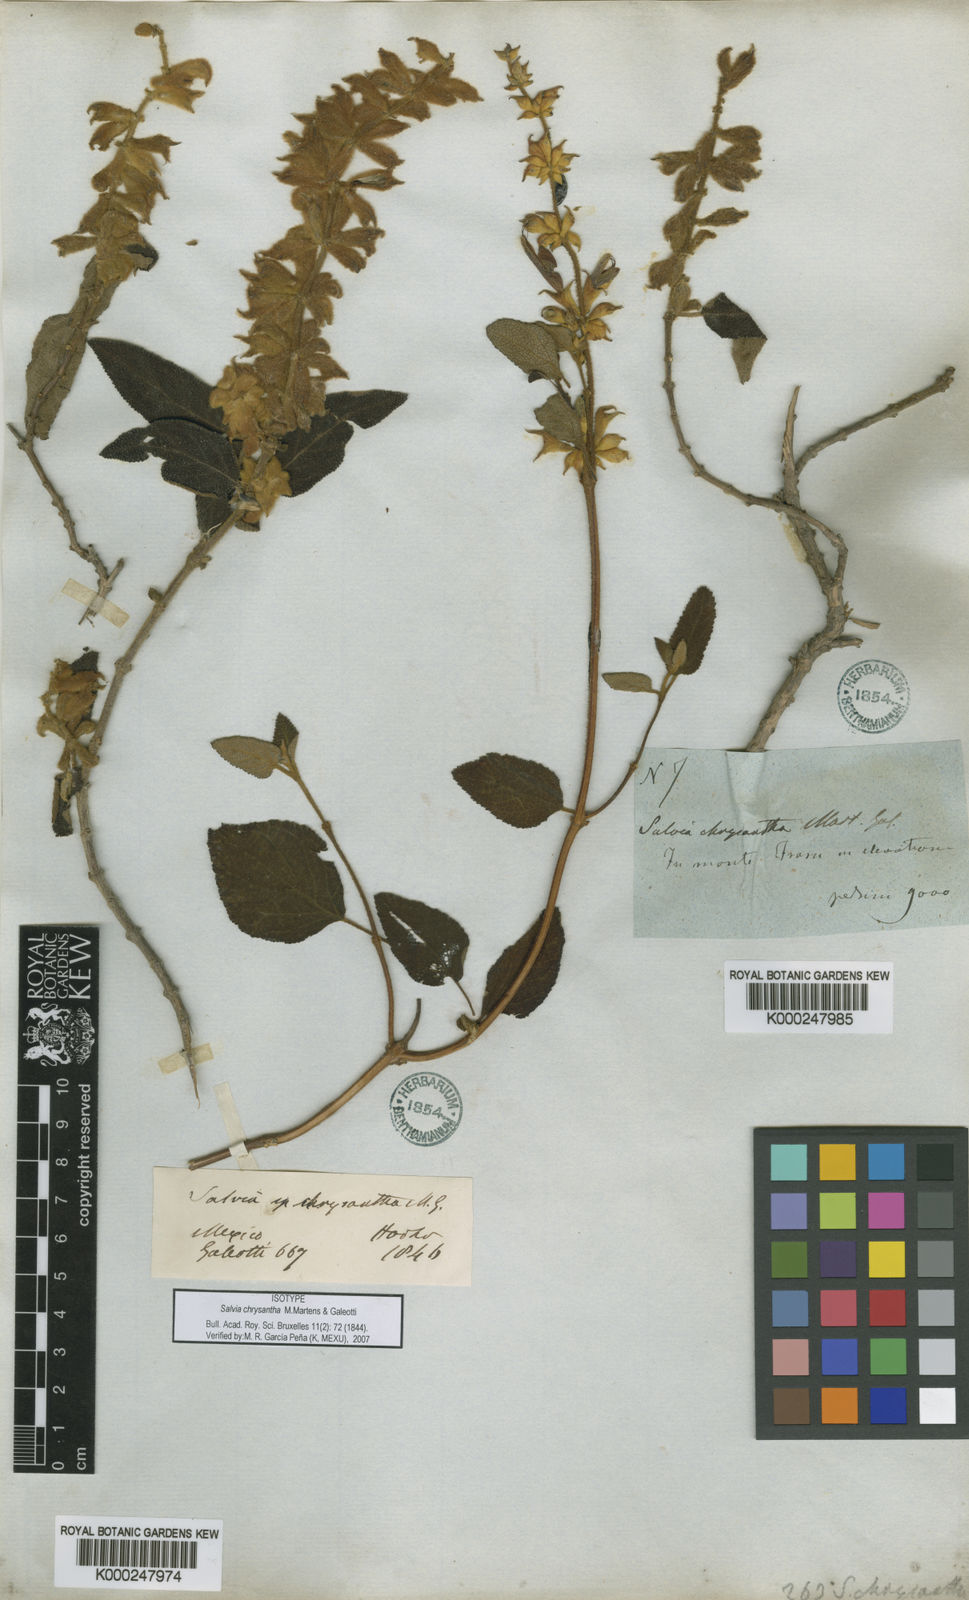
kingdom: Plantae
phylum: Tracheophyta
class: Magnoliopsida
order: Lamiales
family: Lamiaceae
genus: Salvia
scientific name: Salvia lasiantha
